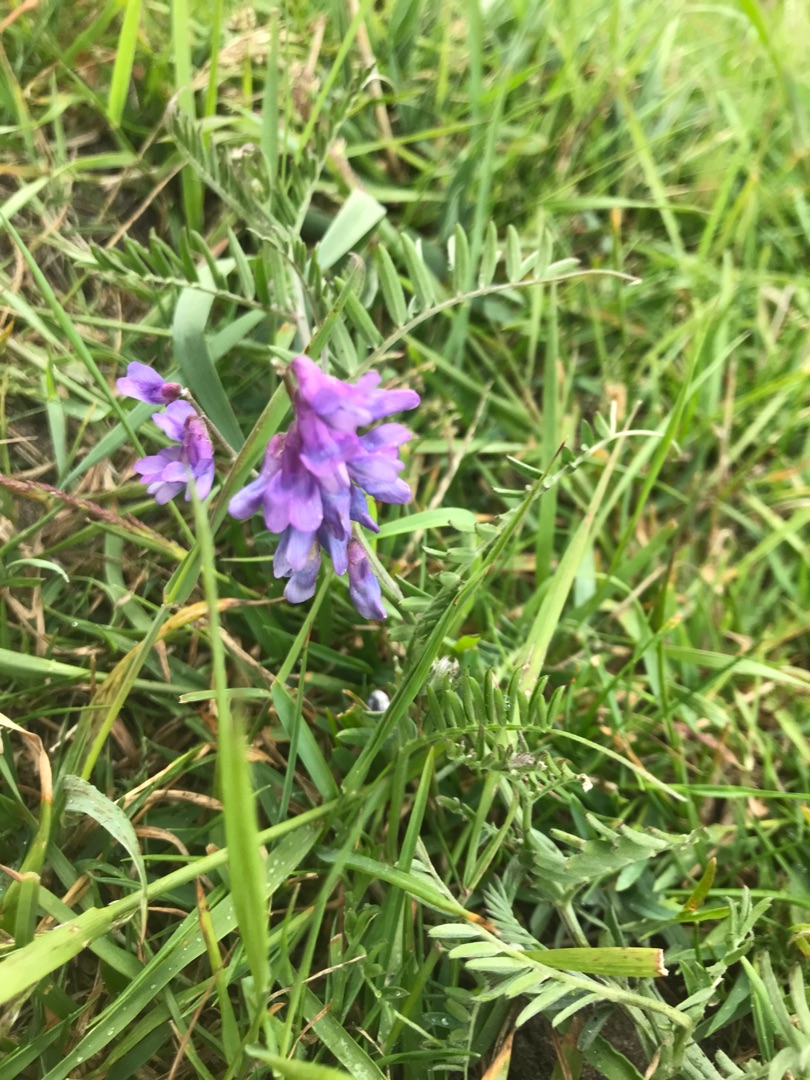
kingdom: Plantae
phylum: Tracheophyta
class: Magnoliopsida
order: Fabales
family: Fabaceae
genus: Vicia
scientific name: Vicia cracca
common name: Muse-vikke
